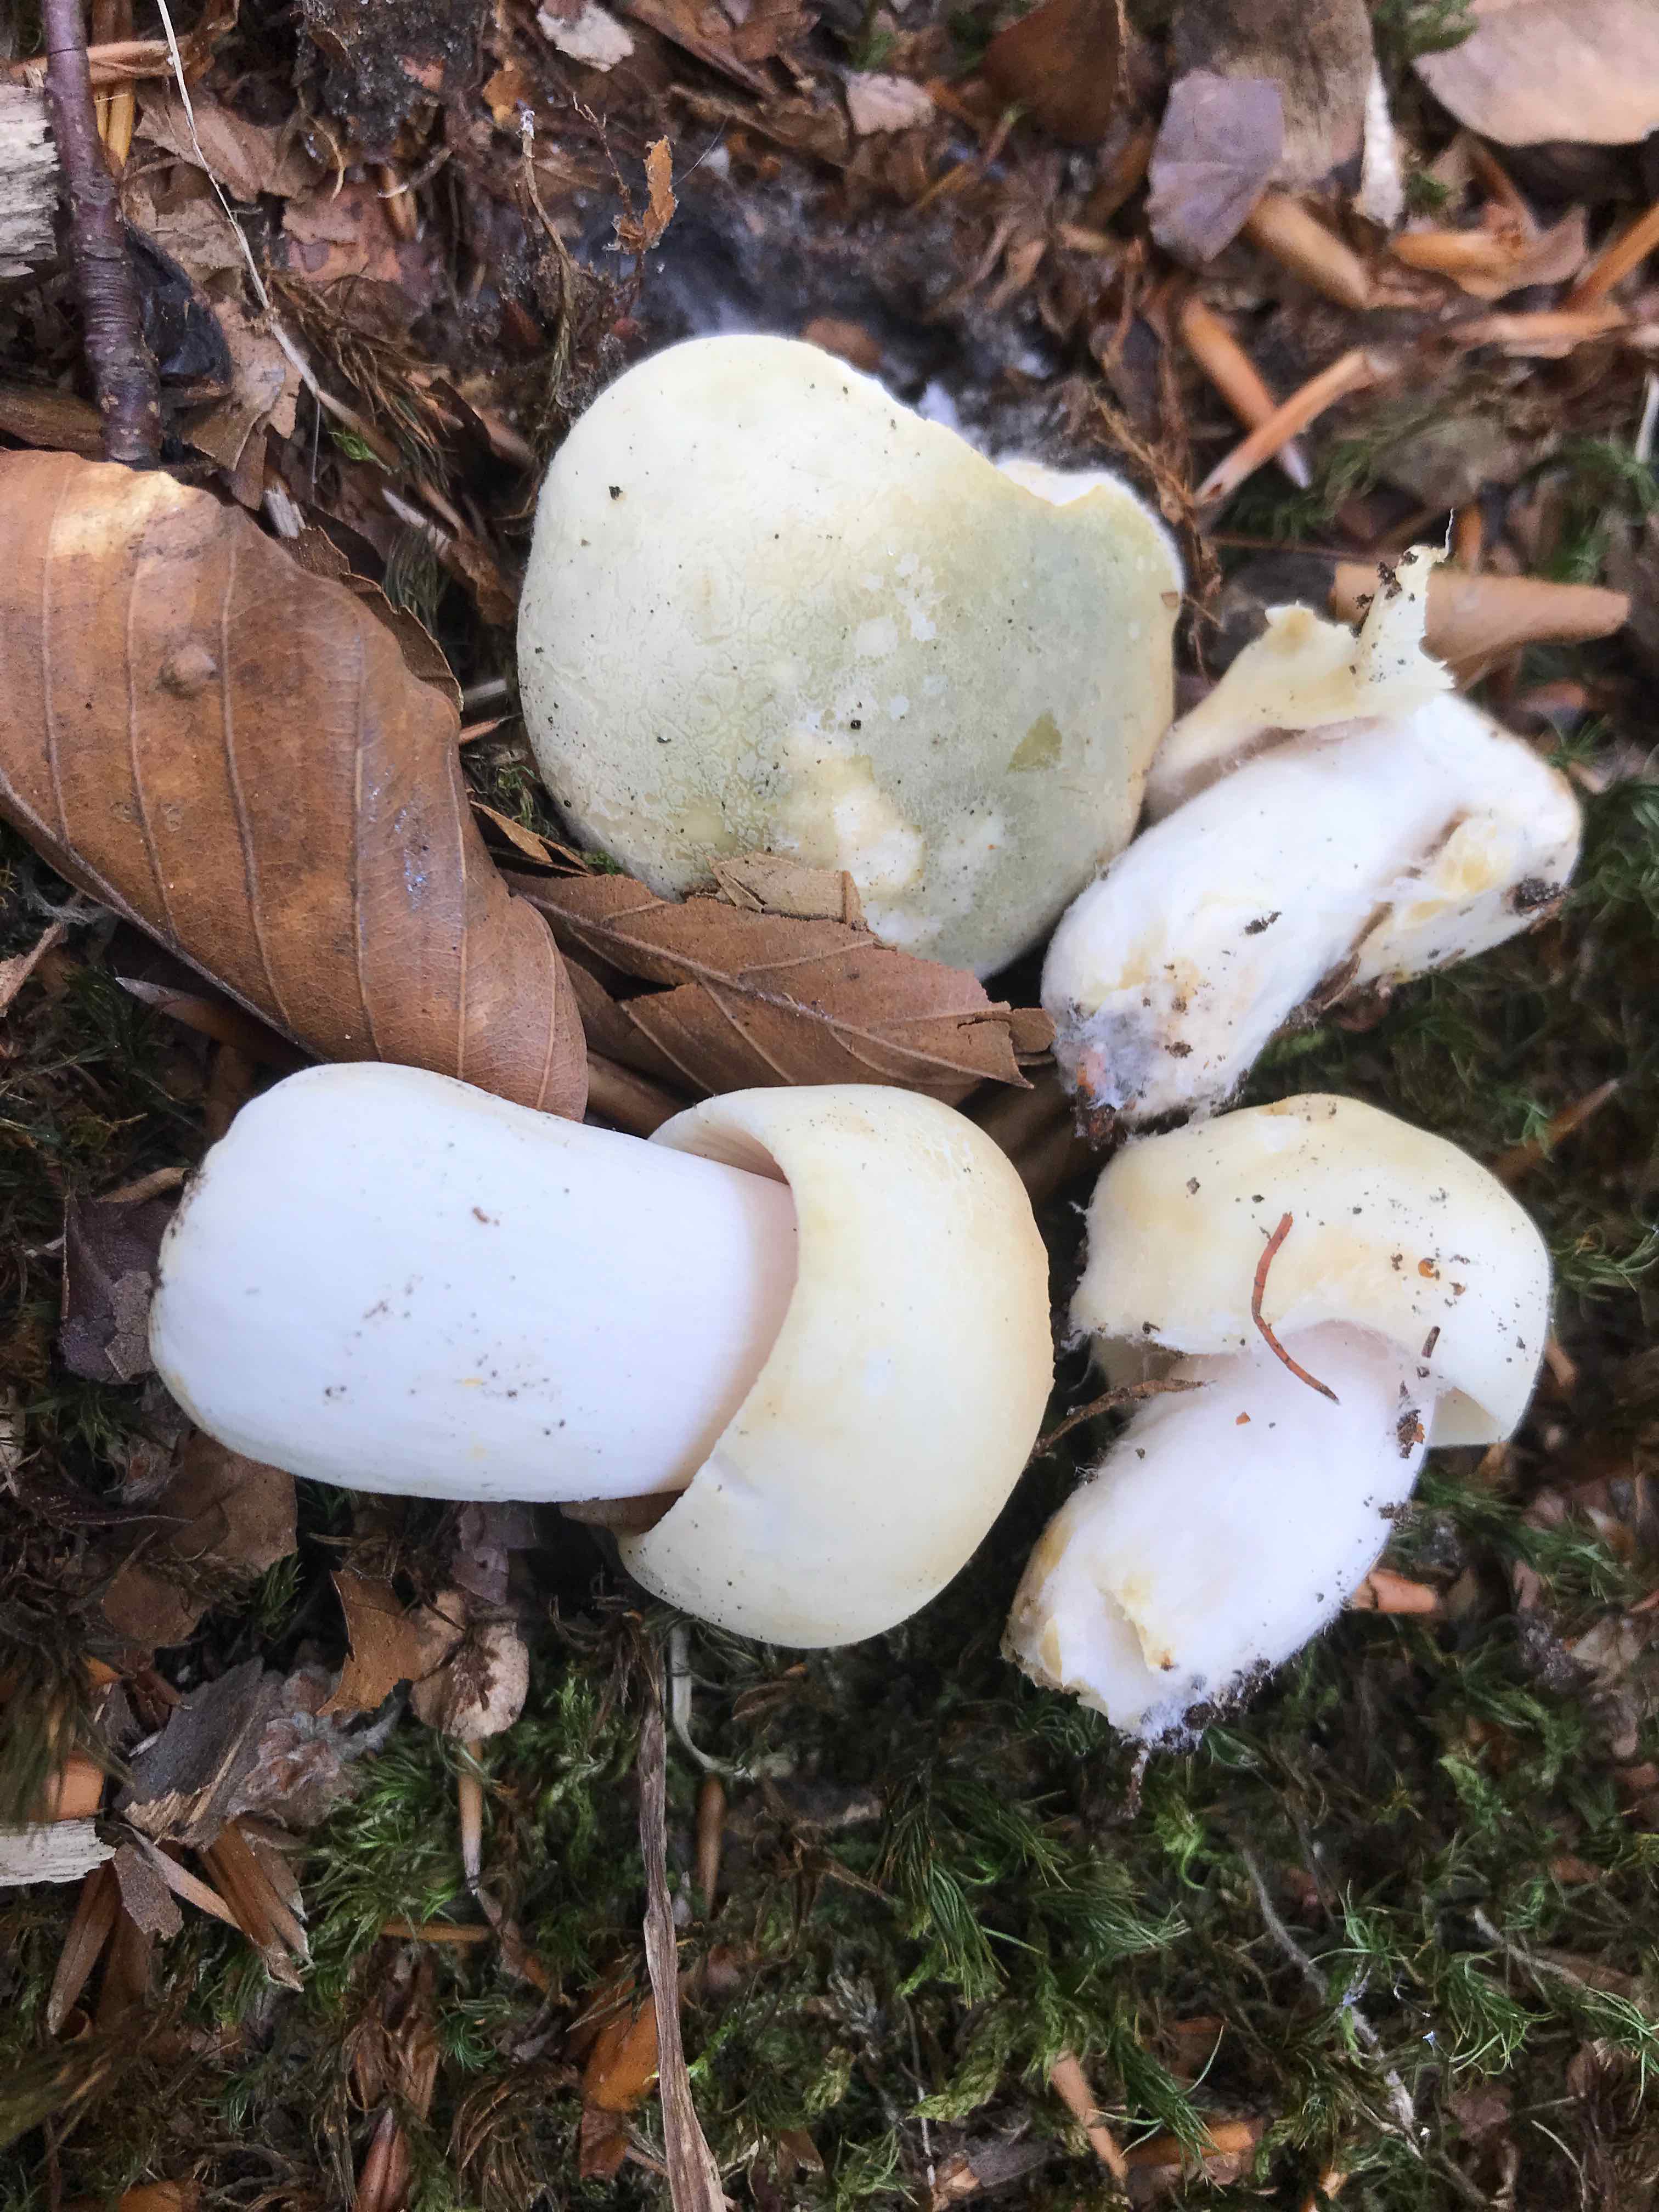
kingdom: Fungi
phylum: Basidiomycota
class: Agaricomycetes
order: Russulales
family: Russulaceae
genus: Russula
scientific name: Russula virescens
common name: spanskgrøn skørhat
